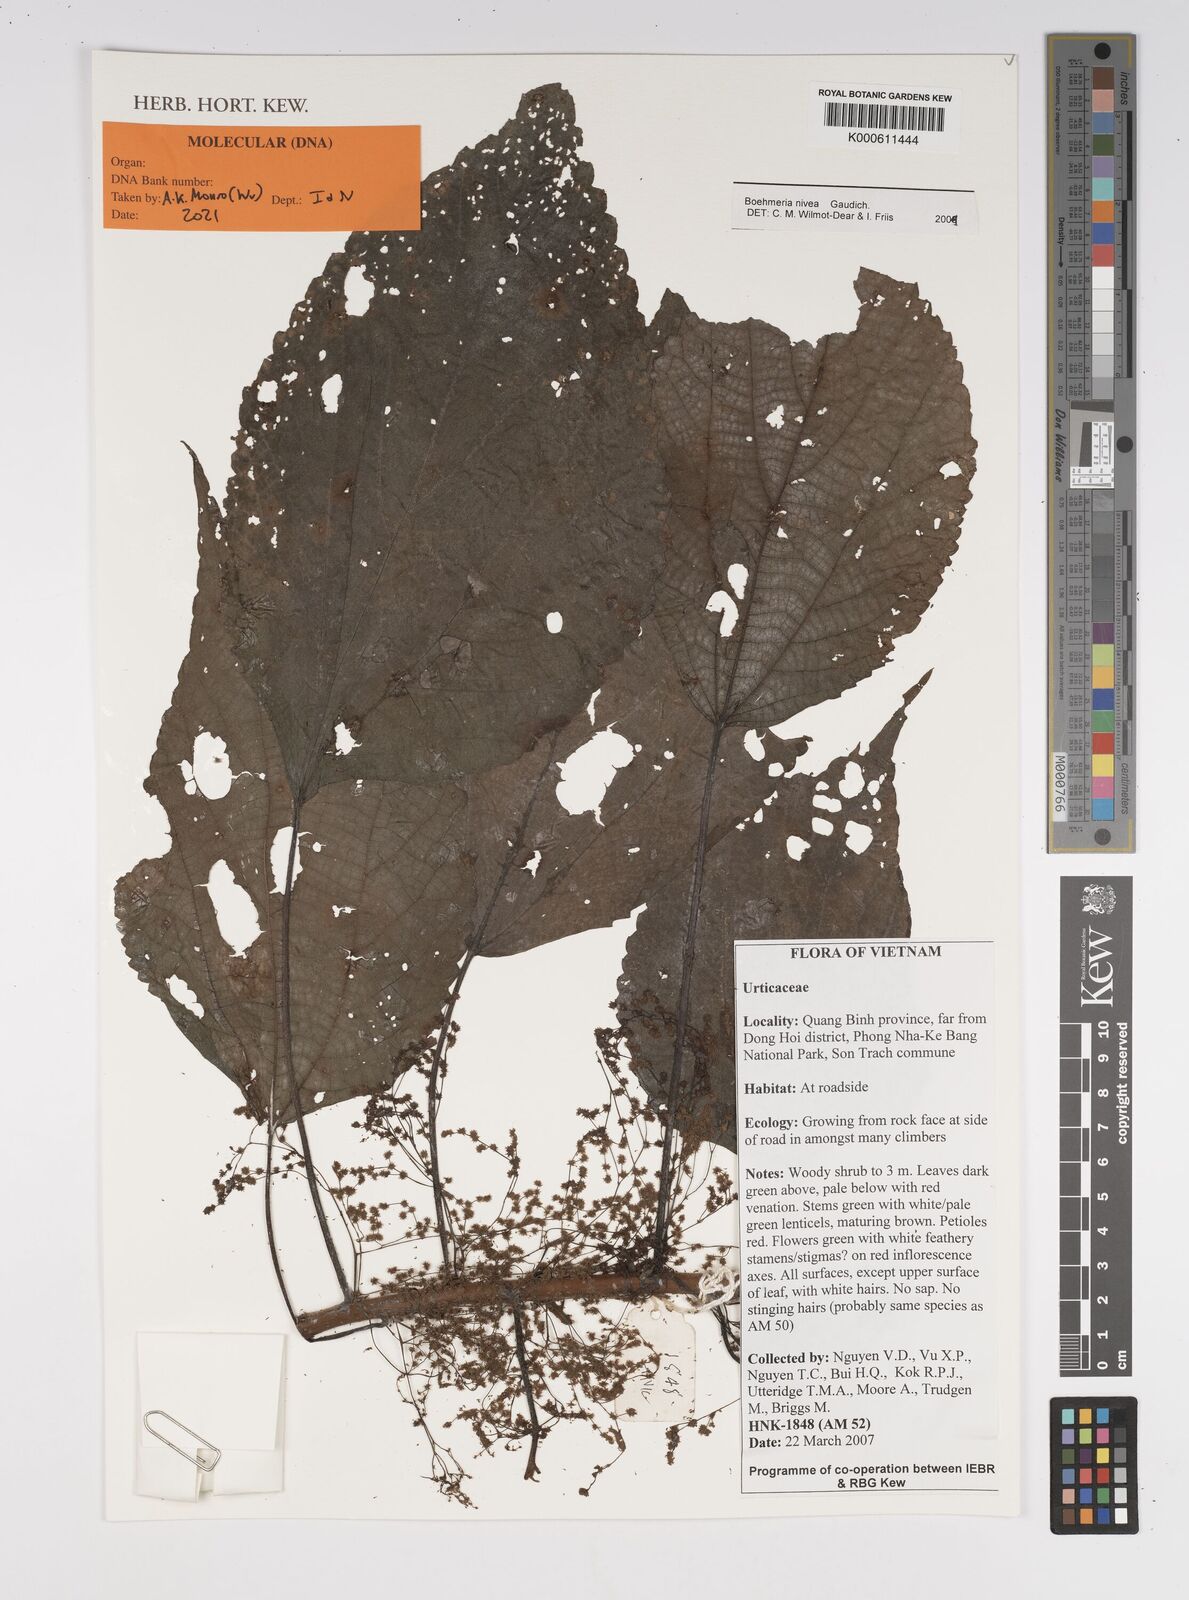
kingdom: Plantae
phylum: Tracheophyta
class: Magnoliopsida
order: Rosales
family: Urticaceae
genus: Boehmeria
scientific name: Boehmeria nivea
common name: Ramie chinese grass
